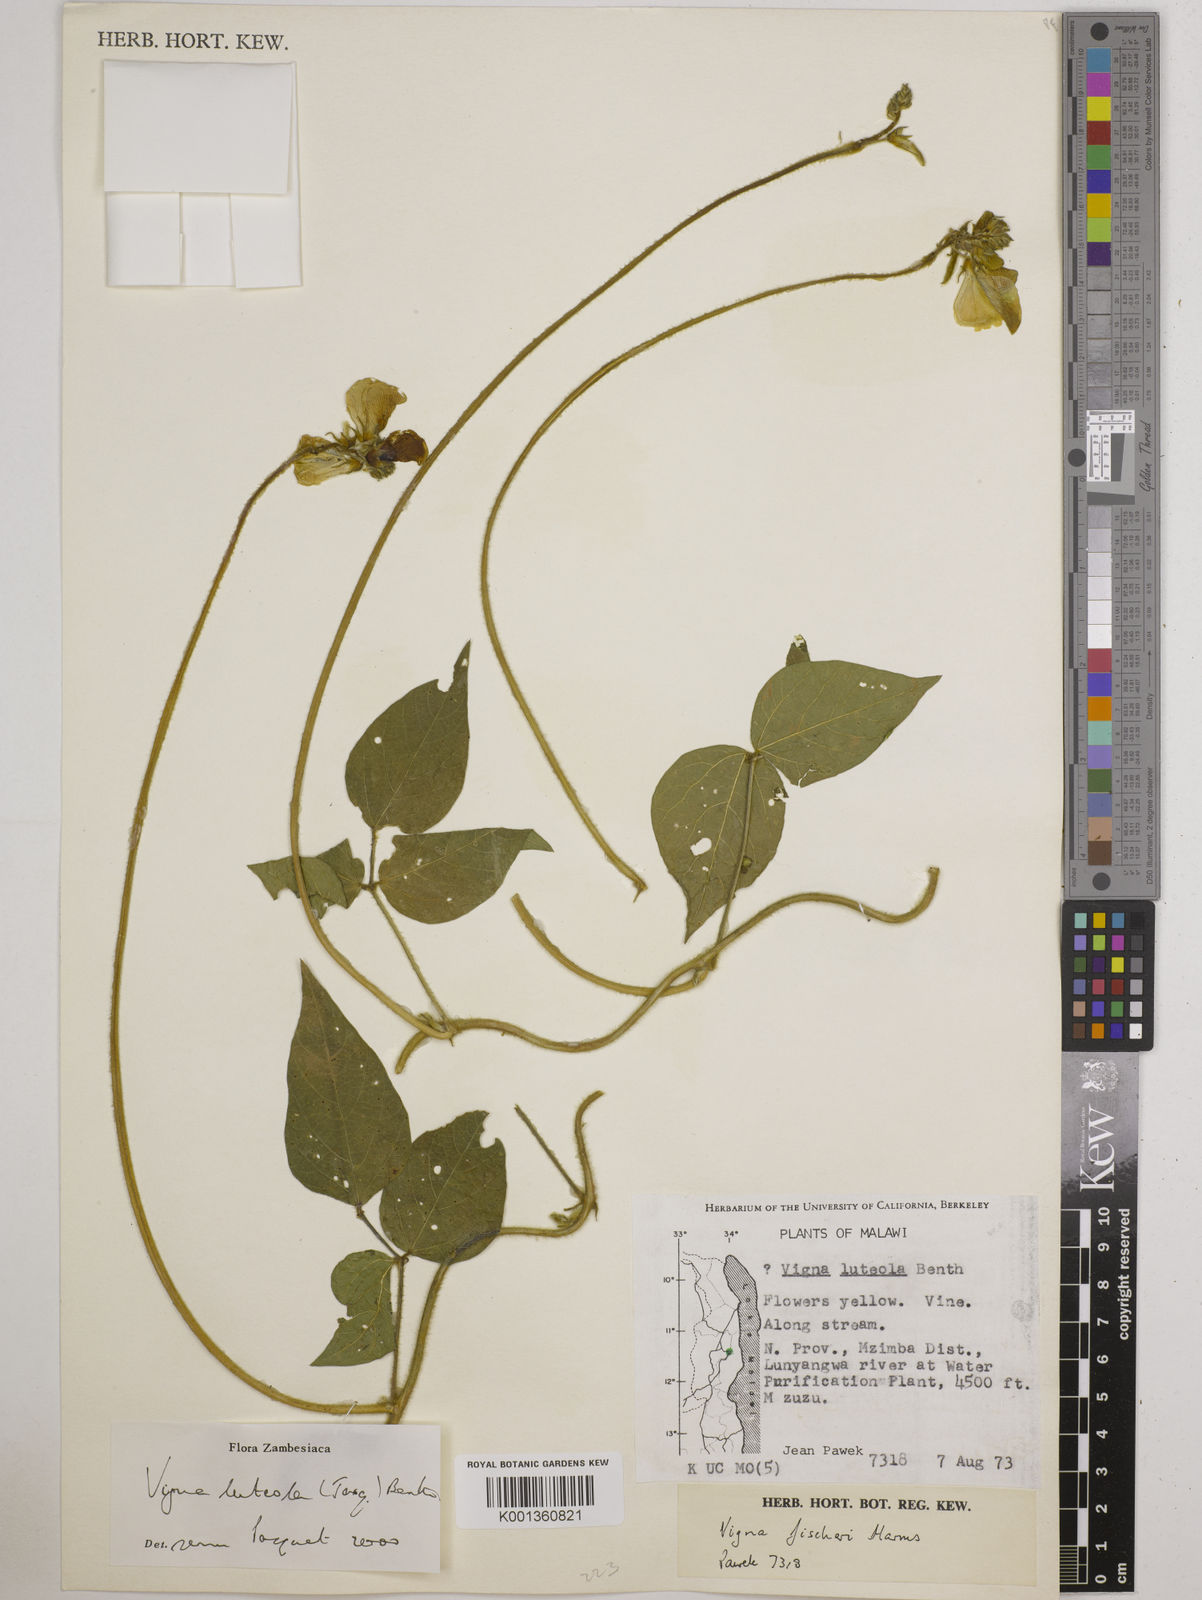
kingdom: Plantae
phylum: Tracheophyta
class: Magnoliopsida
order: Fabales
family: Fabaceae
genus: Vigna
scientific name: Vigna luteola
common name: Hairypod cowpea
